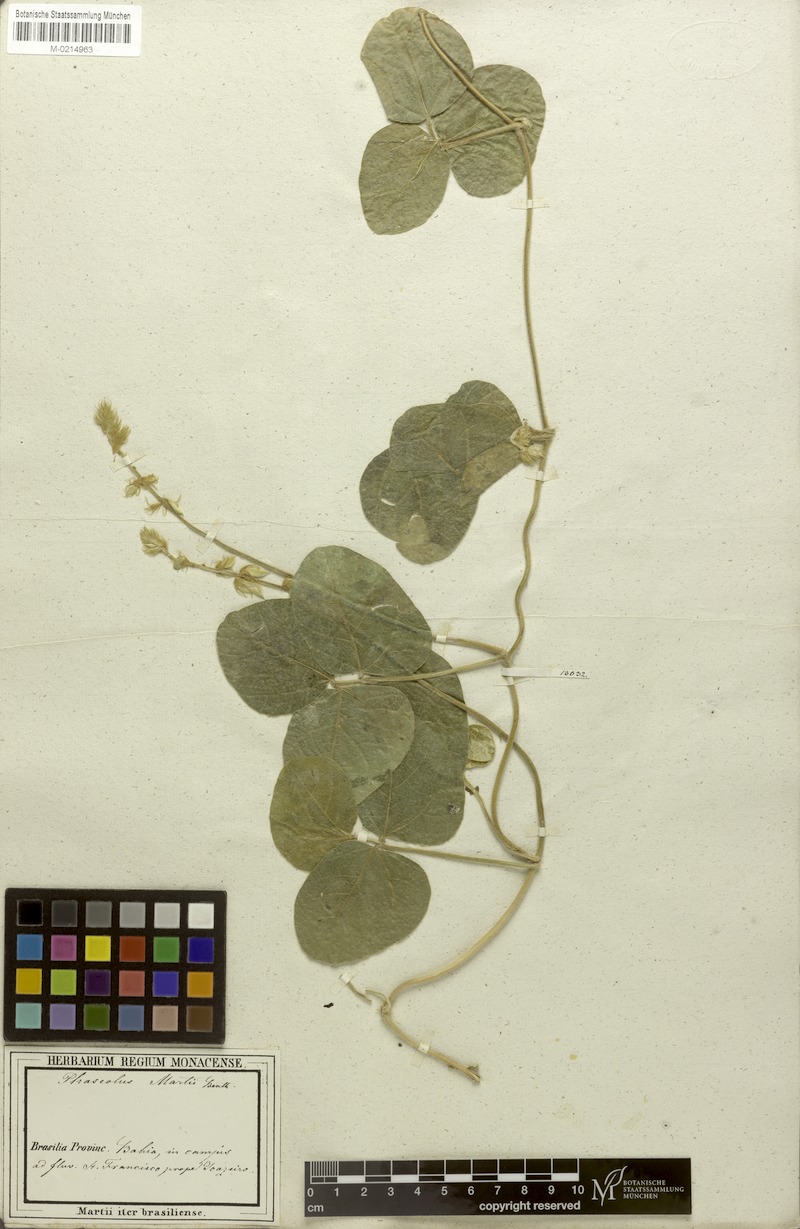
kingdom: Plantae
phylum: Tracheophyta
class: Magnoliopsida
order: Fabales
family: Fabaceae
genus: Macroptilium
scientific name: Macroptilium martii
